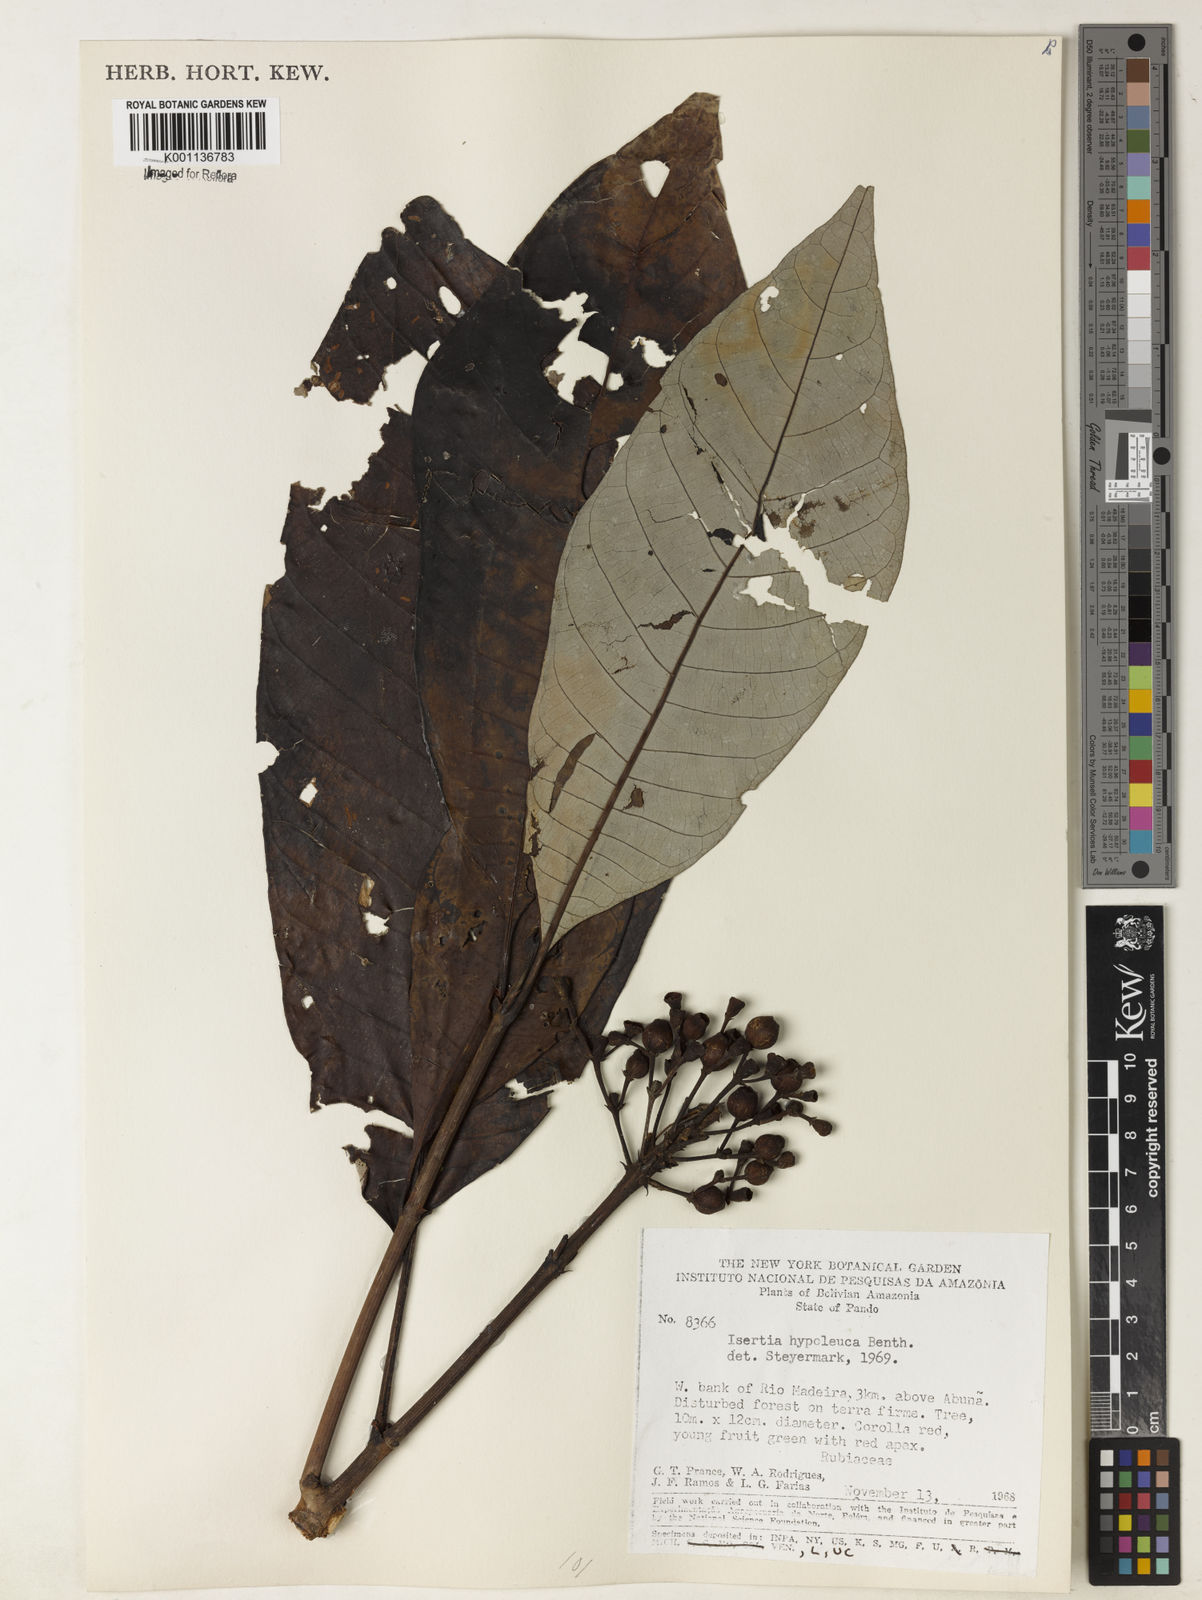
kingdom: Plantae
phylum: Tracheophyta
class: Magnoliopsida
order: Gentianales
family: Rubiaceae
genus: Isertia
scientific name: Isertia hypoleuca
